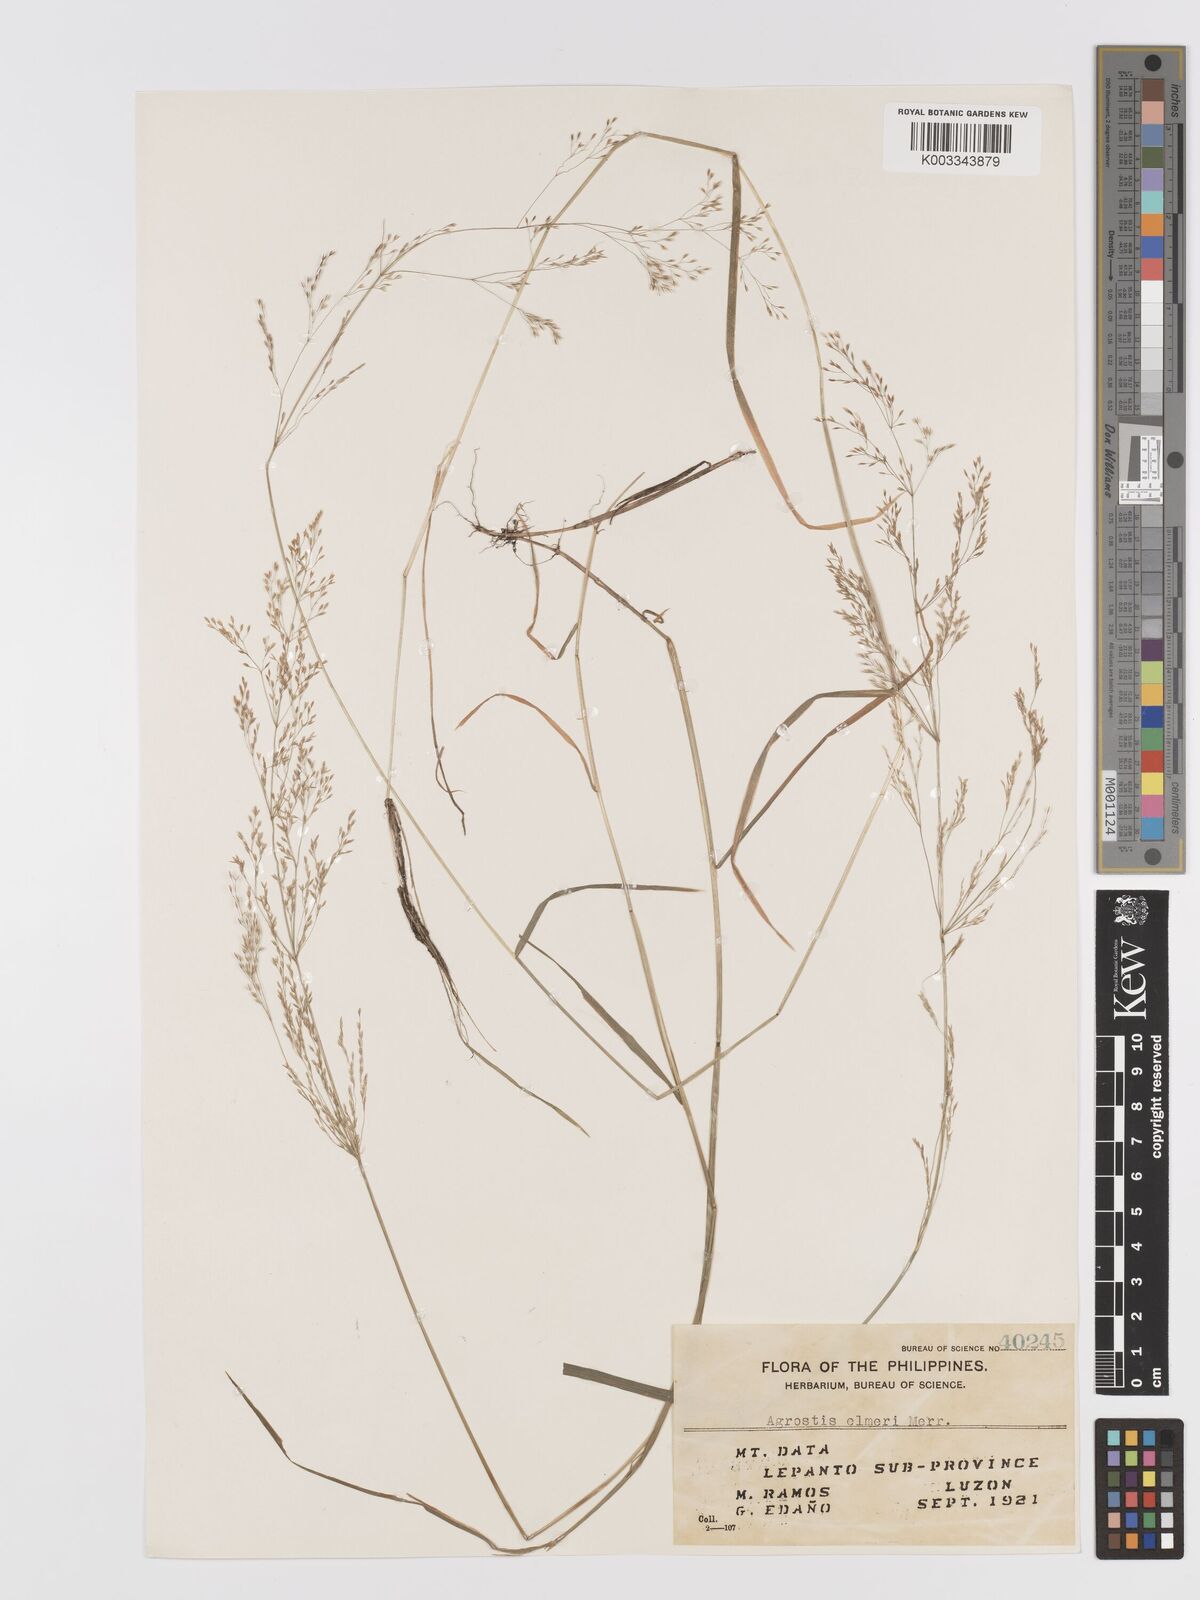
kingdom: Plantae
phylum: Tracheophyta
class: Liliopsida
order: Poales
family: Poaceae
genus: Agrostis
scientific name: Agrostis infirma
